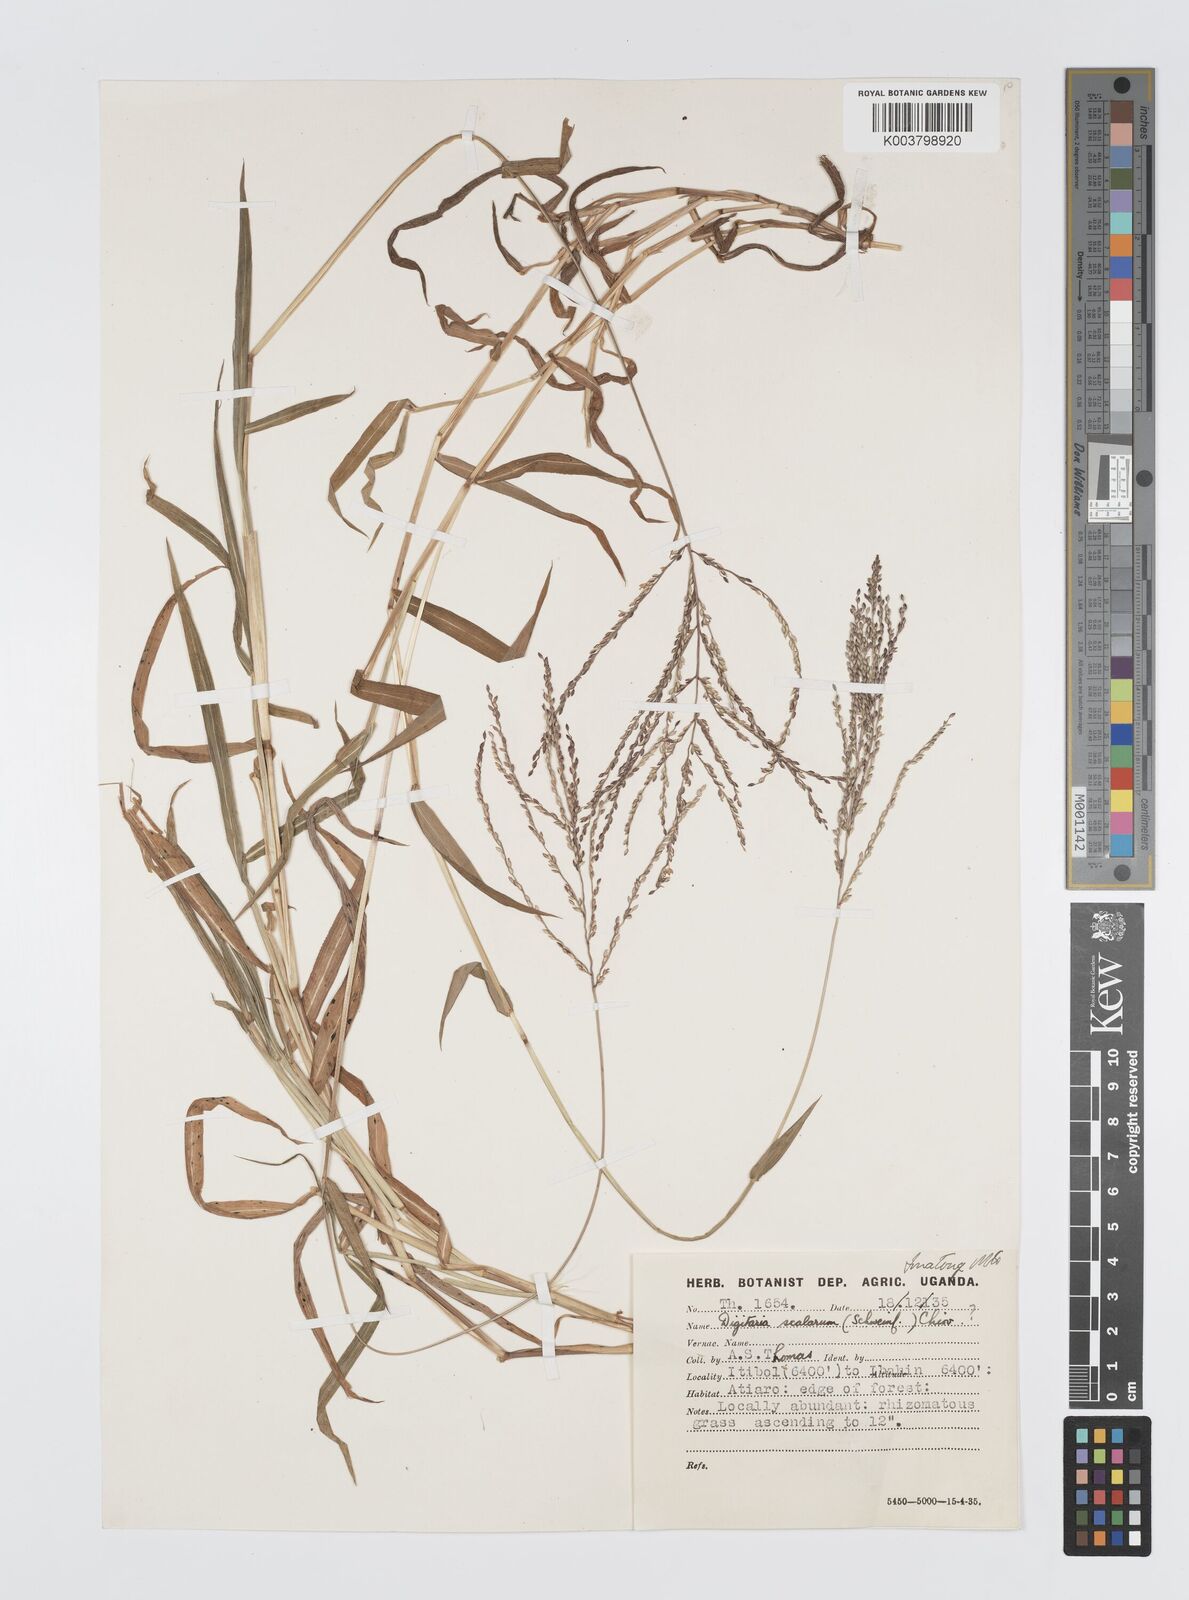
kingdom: Plantae
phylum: Tracheophyta
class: Liliopsida
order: Poales
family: Poaceae
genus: Digitaria
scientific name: Digitaria abyssinica
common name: African couchgrass
